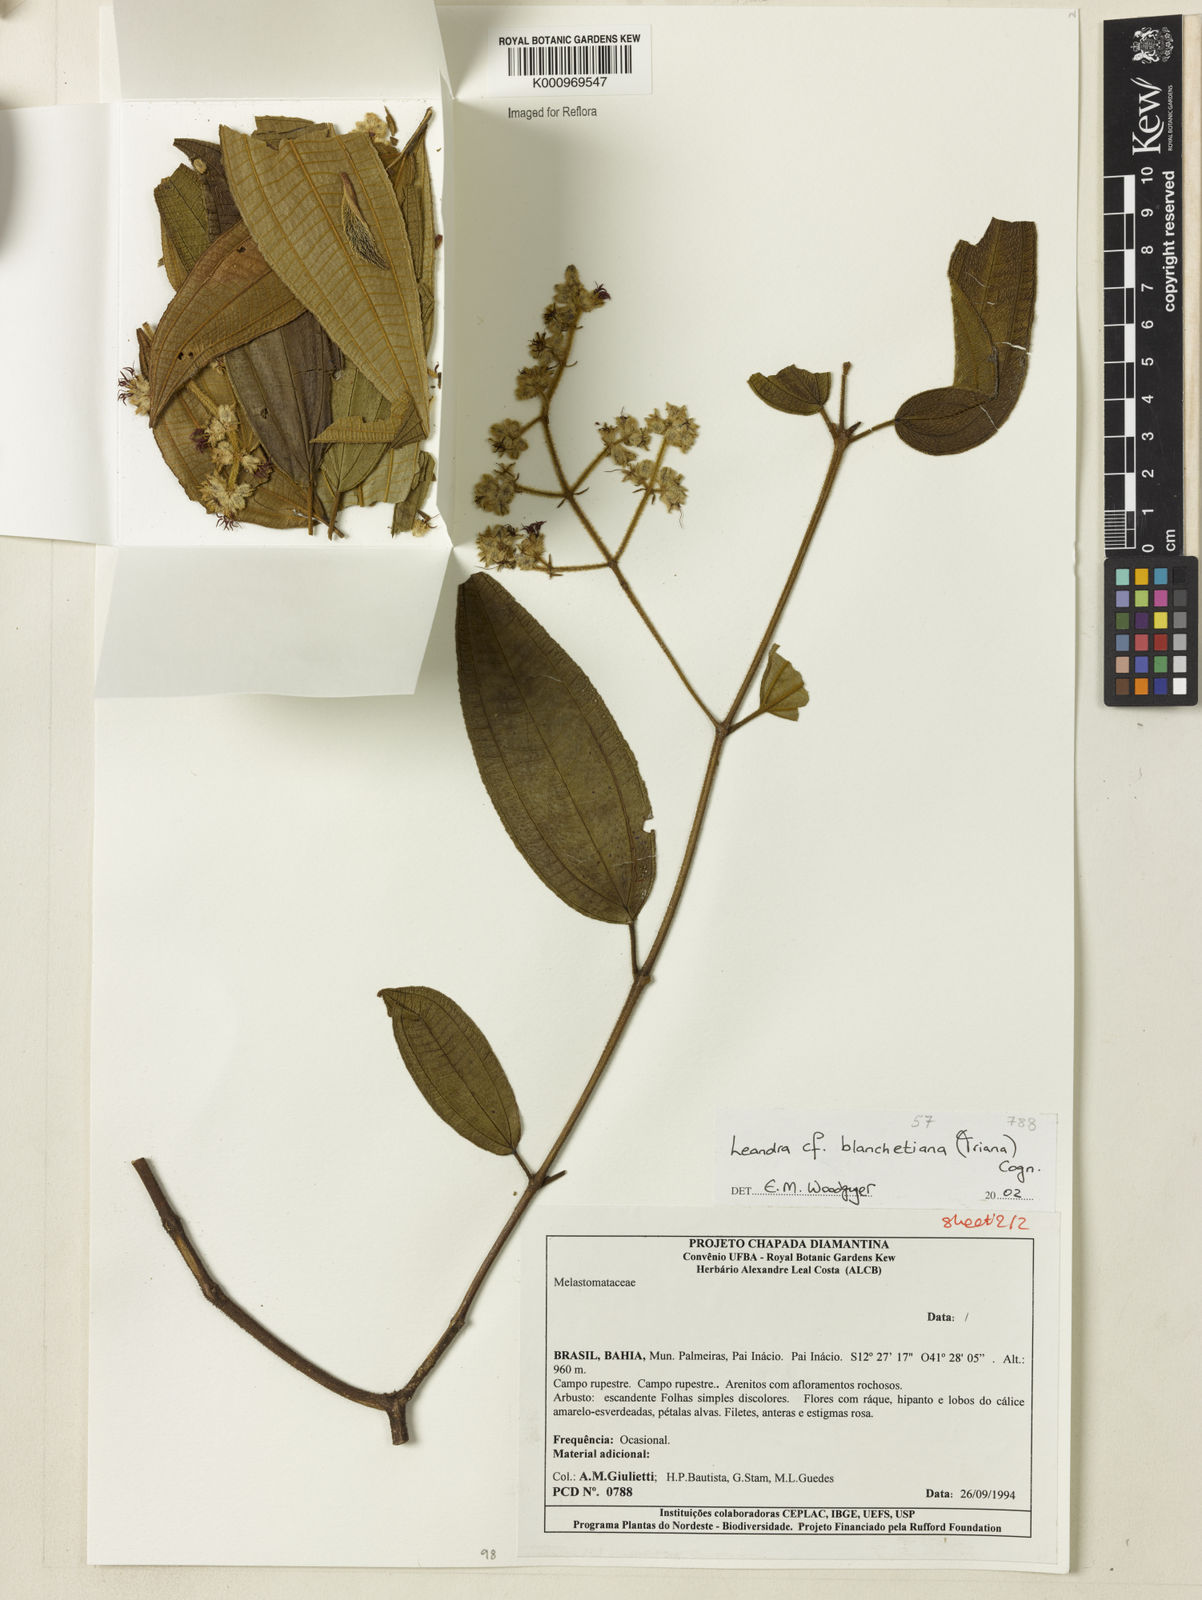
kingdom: Plantae
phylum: Tracheophyta
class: Magnoliopsida
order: Myrtales
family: Melastomataceae
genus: Miconia
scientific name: Miconia leablanchetiana
